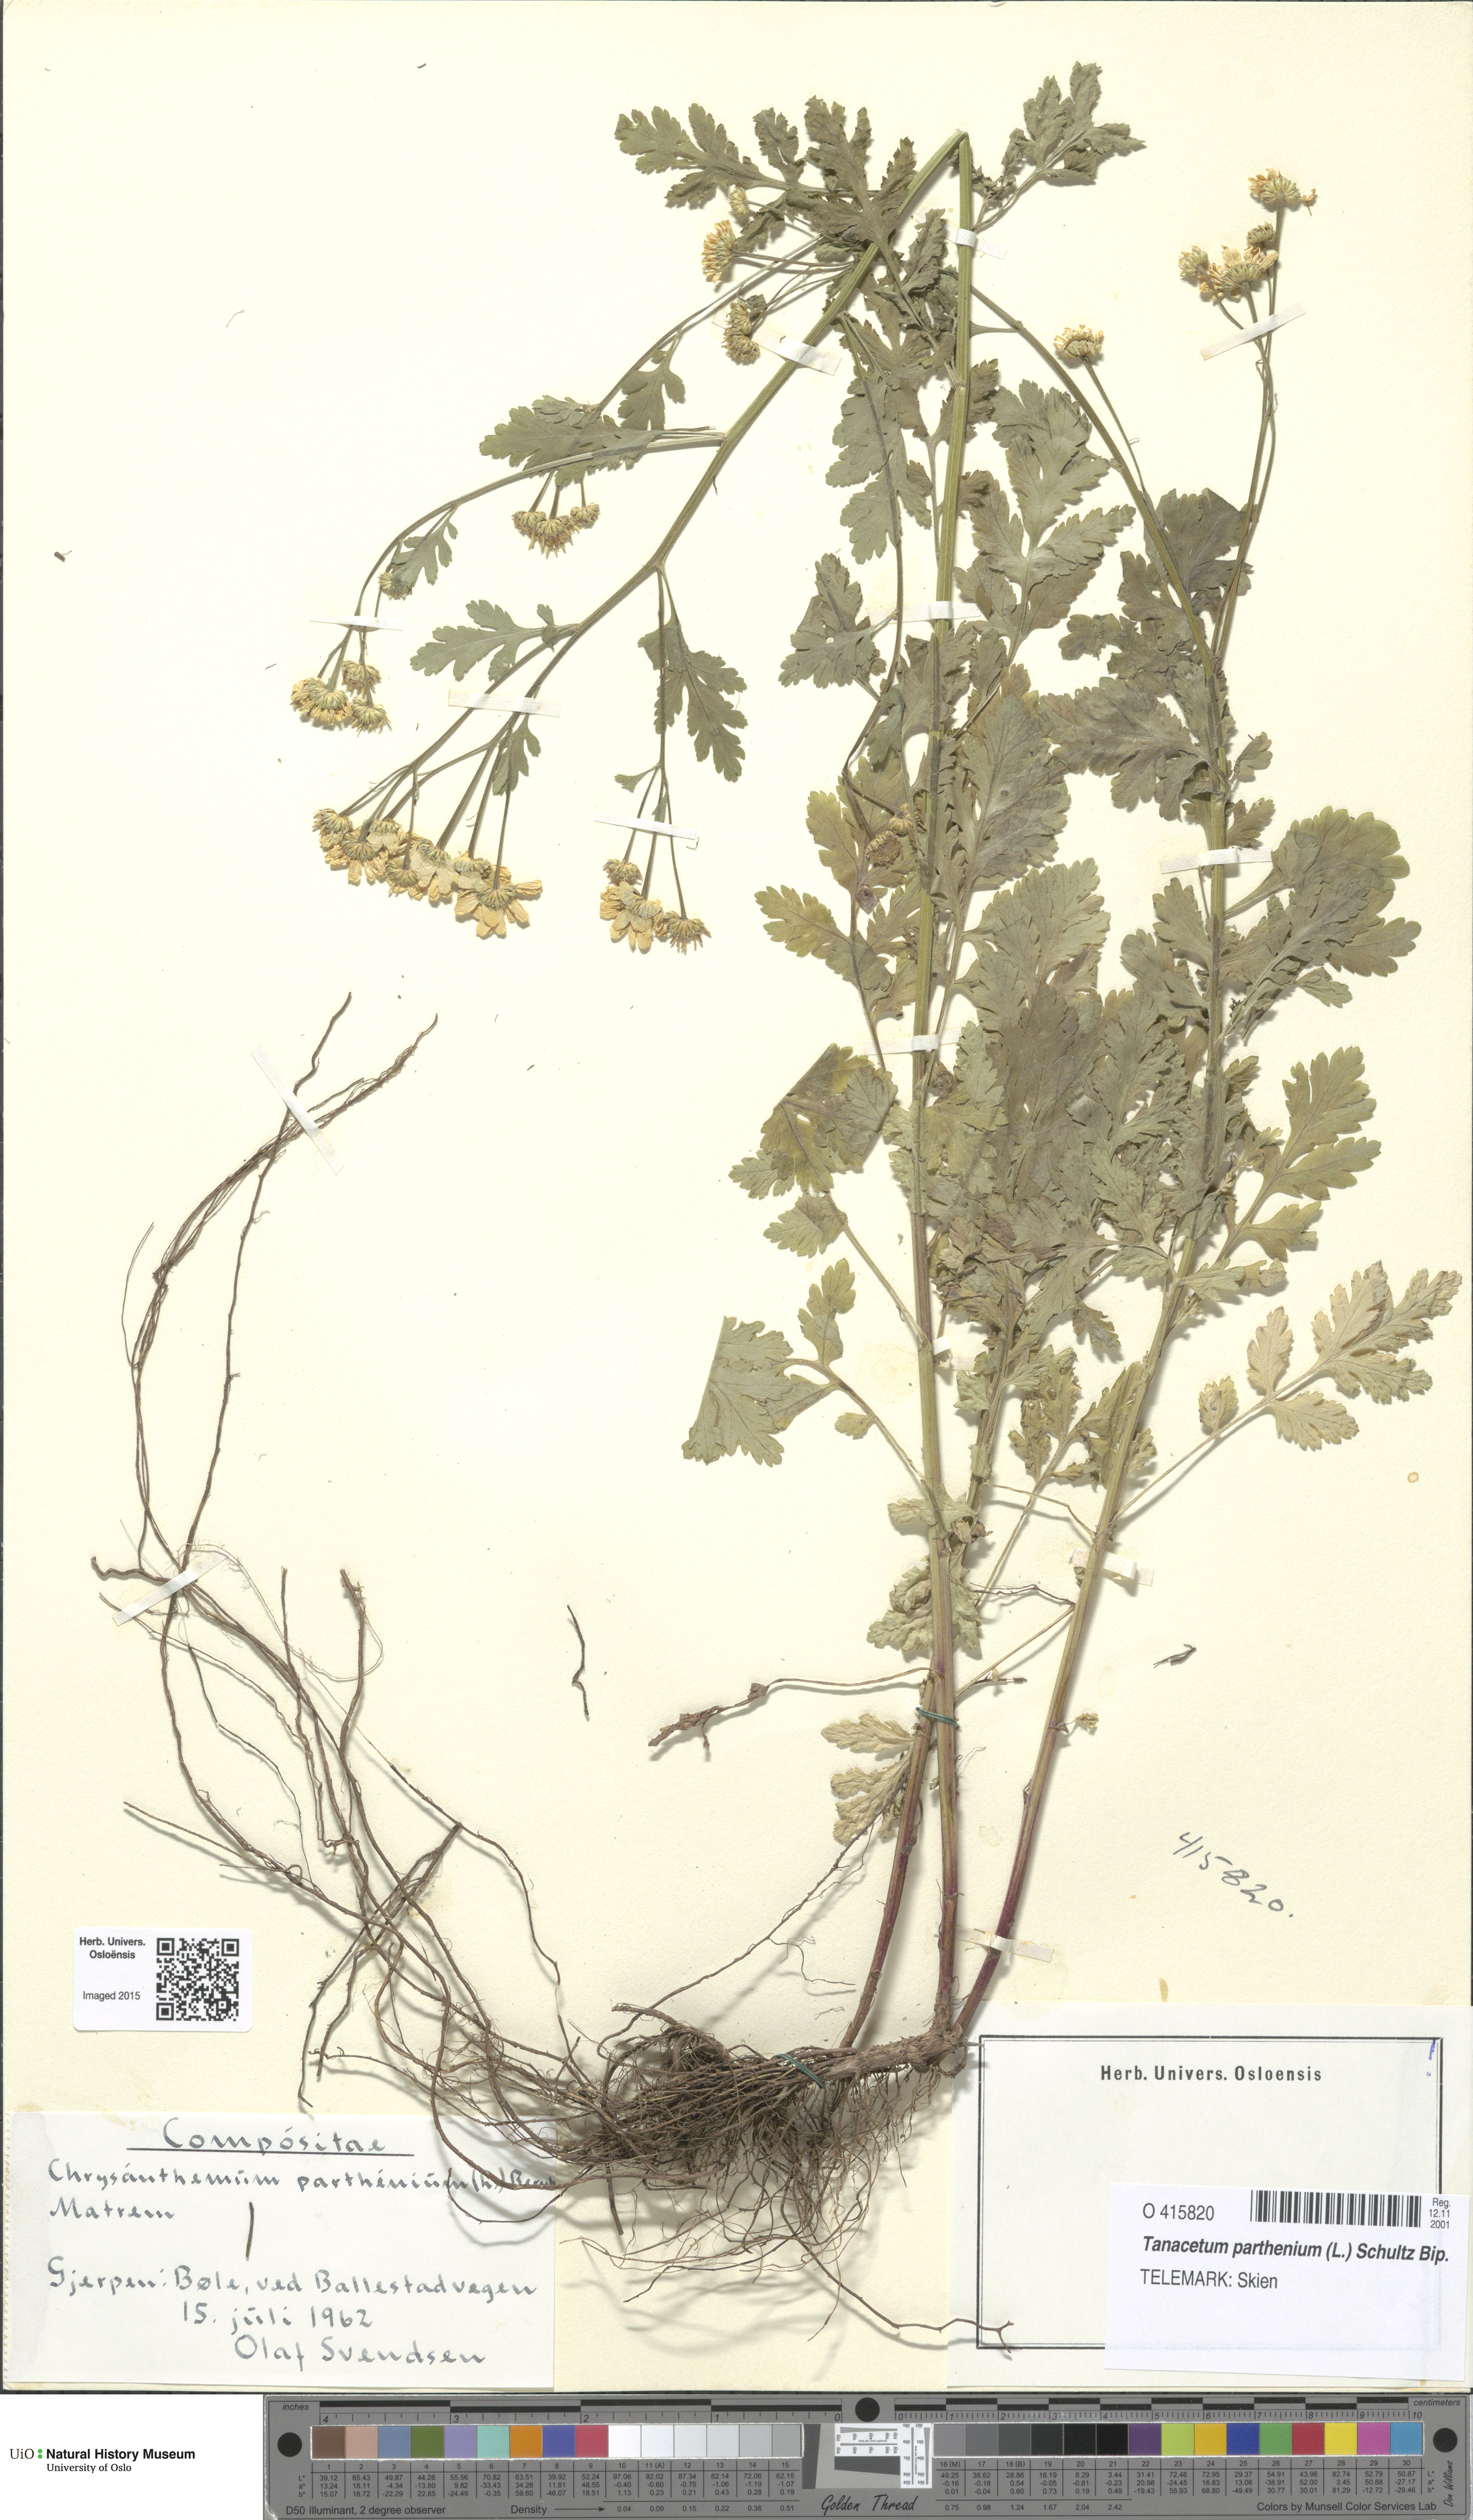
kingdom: Plantae
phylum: Tracheophyta
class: Magnoliopsida
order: Asterales
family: Asteraceae
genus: Tanacetum
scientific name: Tanacetum parthenium
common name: Feverfew
